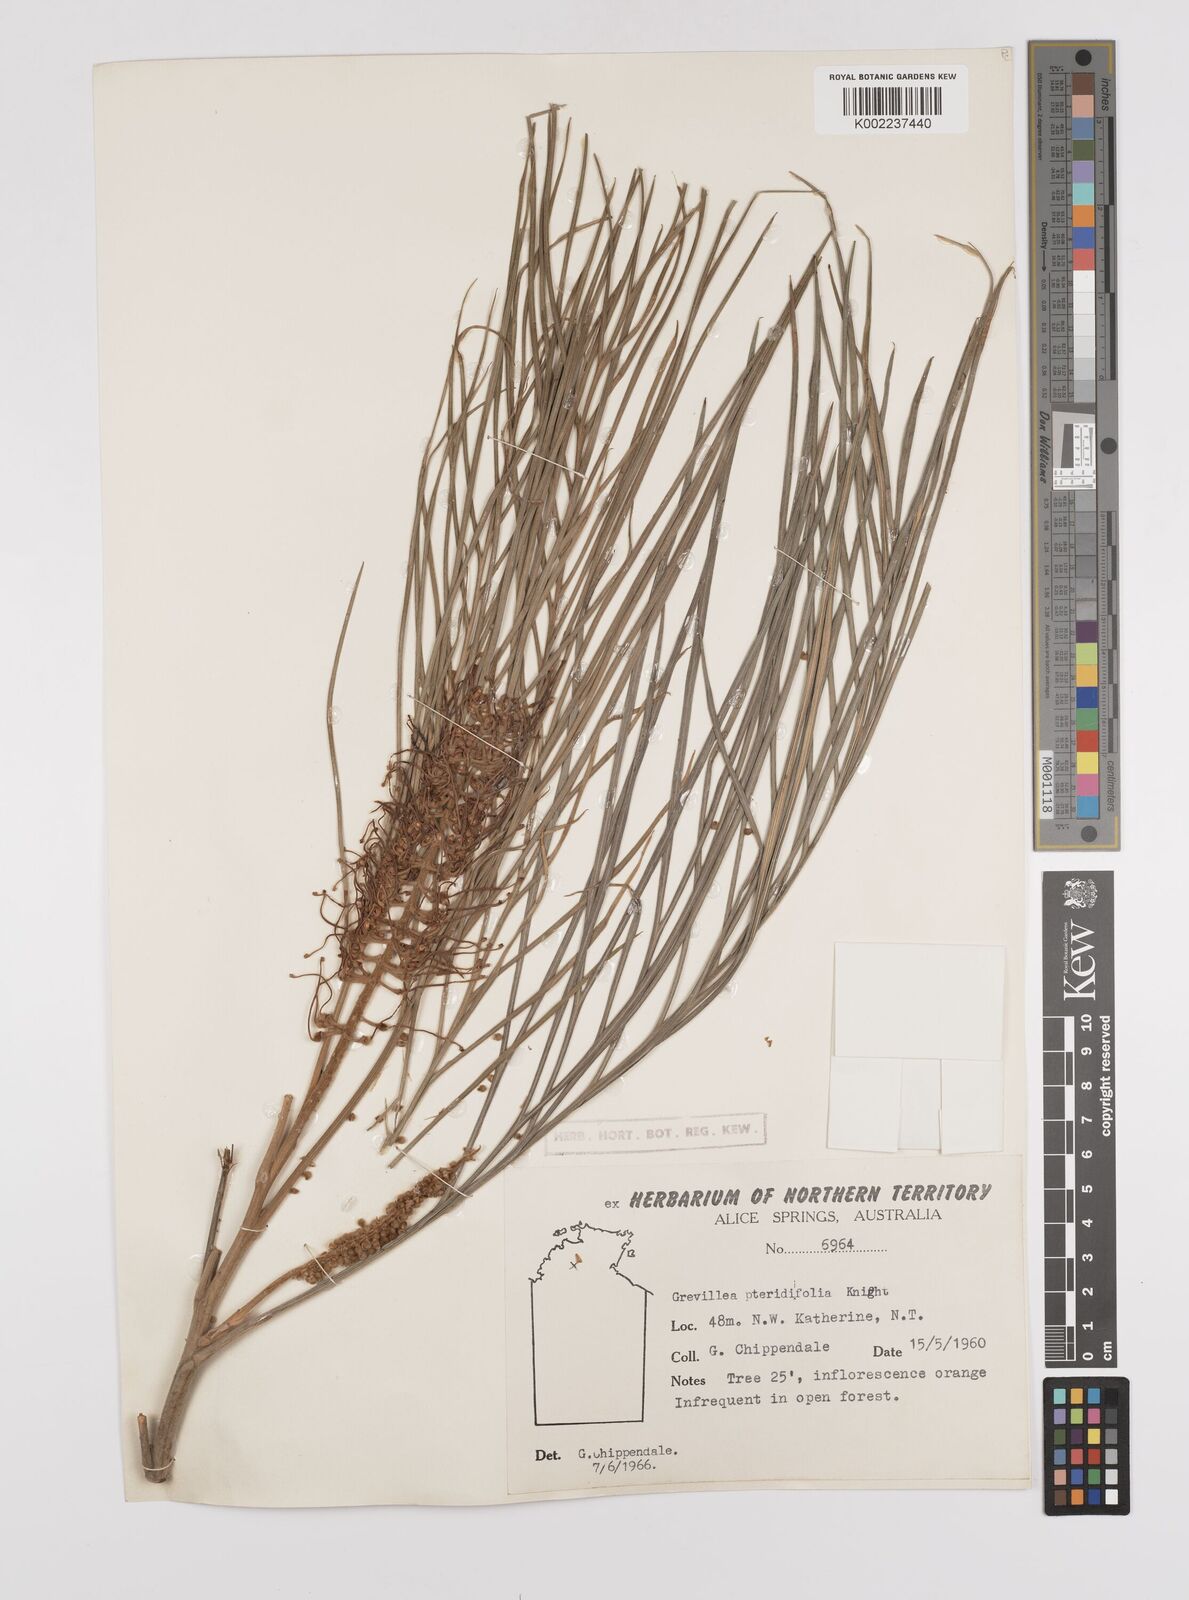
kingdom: Plantae
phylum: Tracheophyta
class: Magnoliopsida
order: Proteales
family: Proteaceae
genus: Grevillea
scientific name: Grevillea pteridifolia
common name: Golden grevillea
